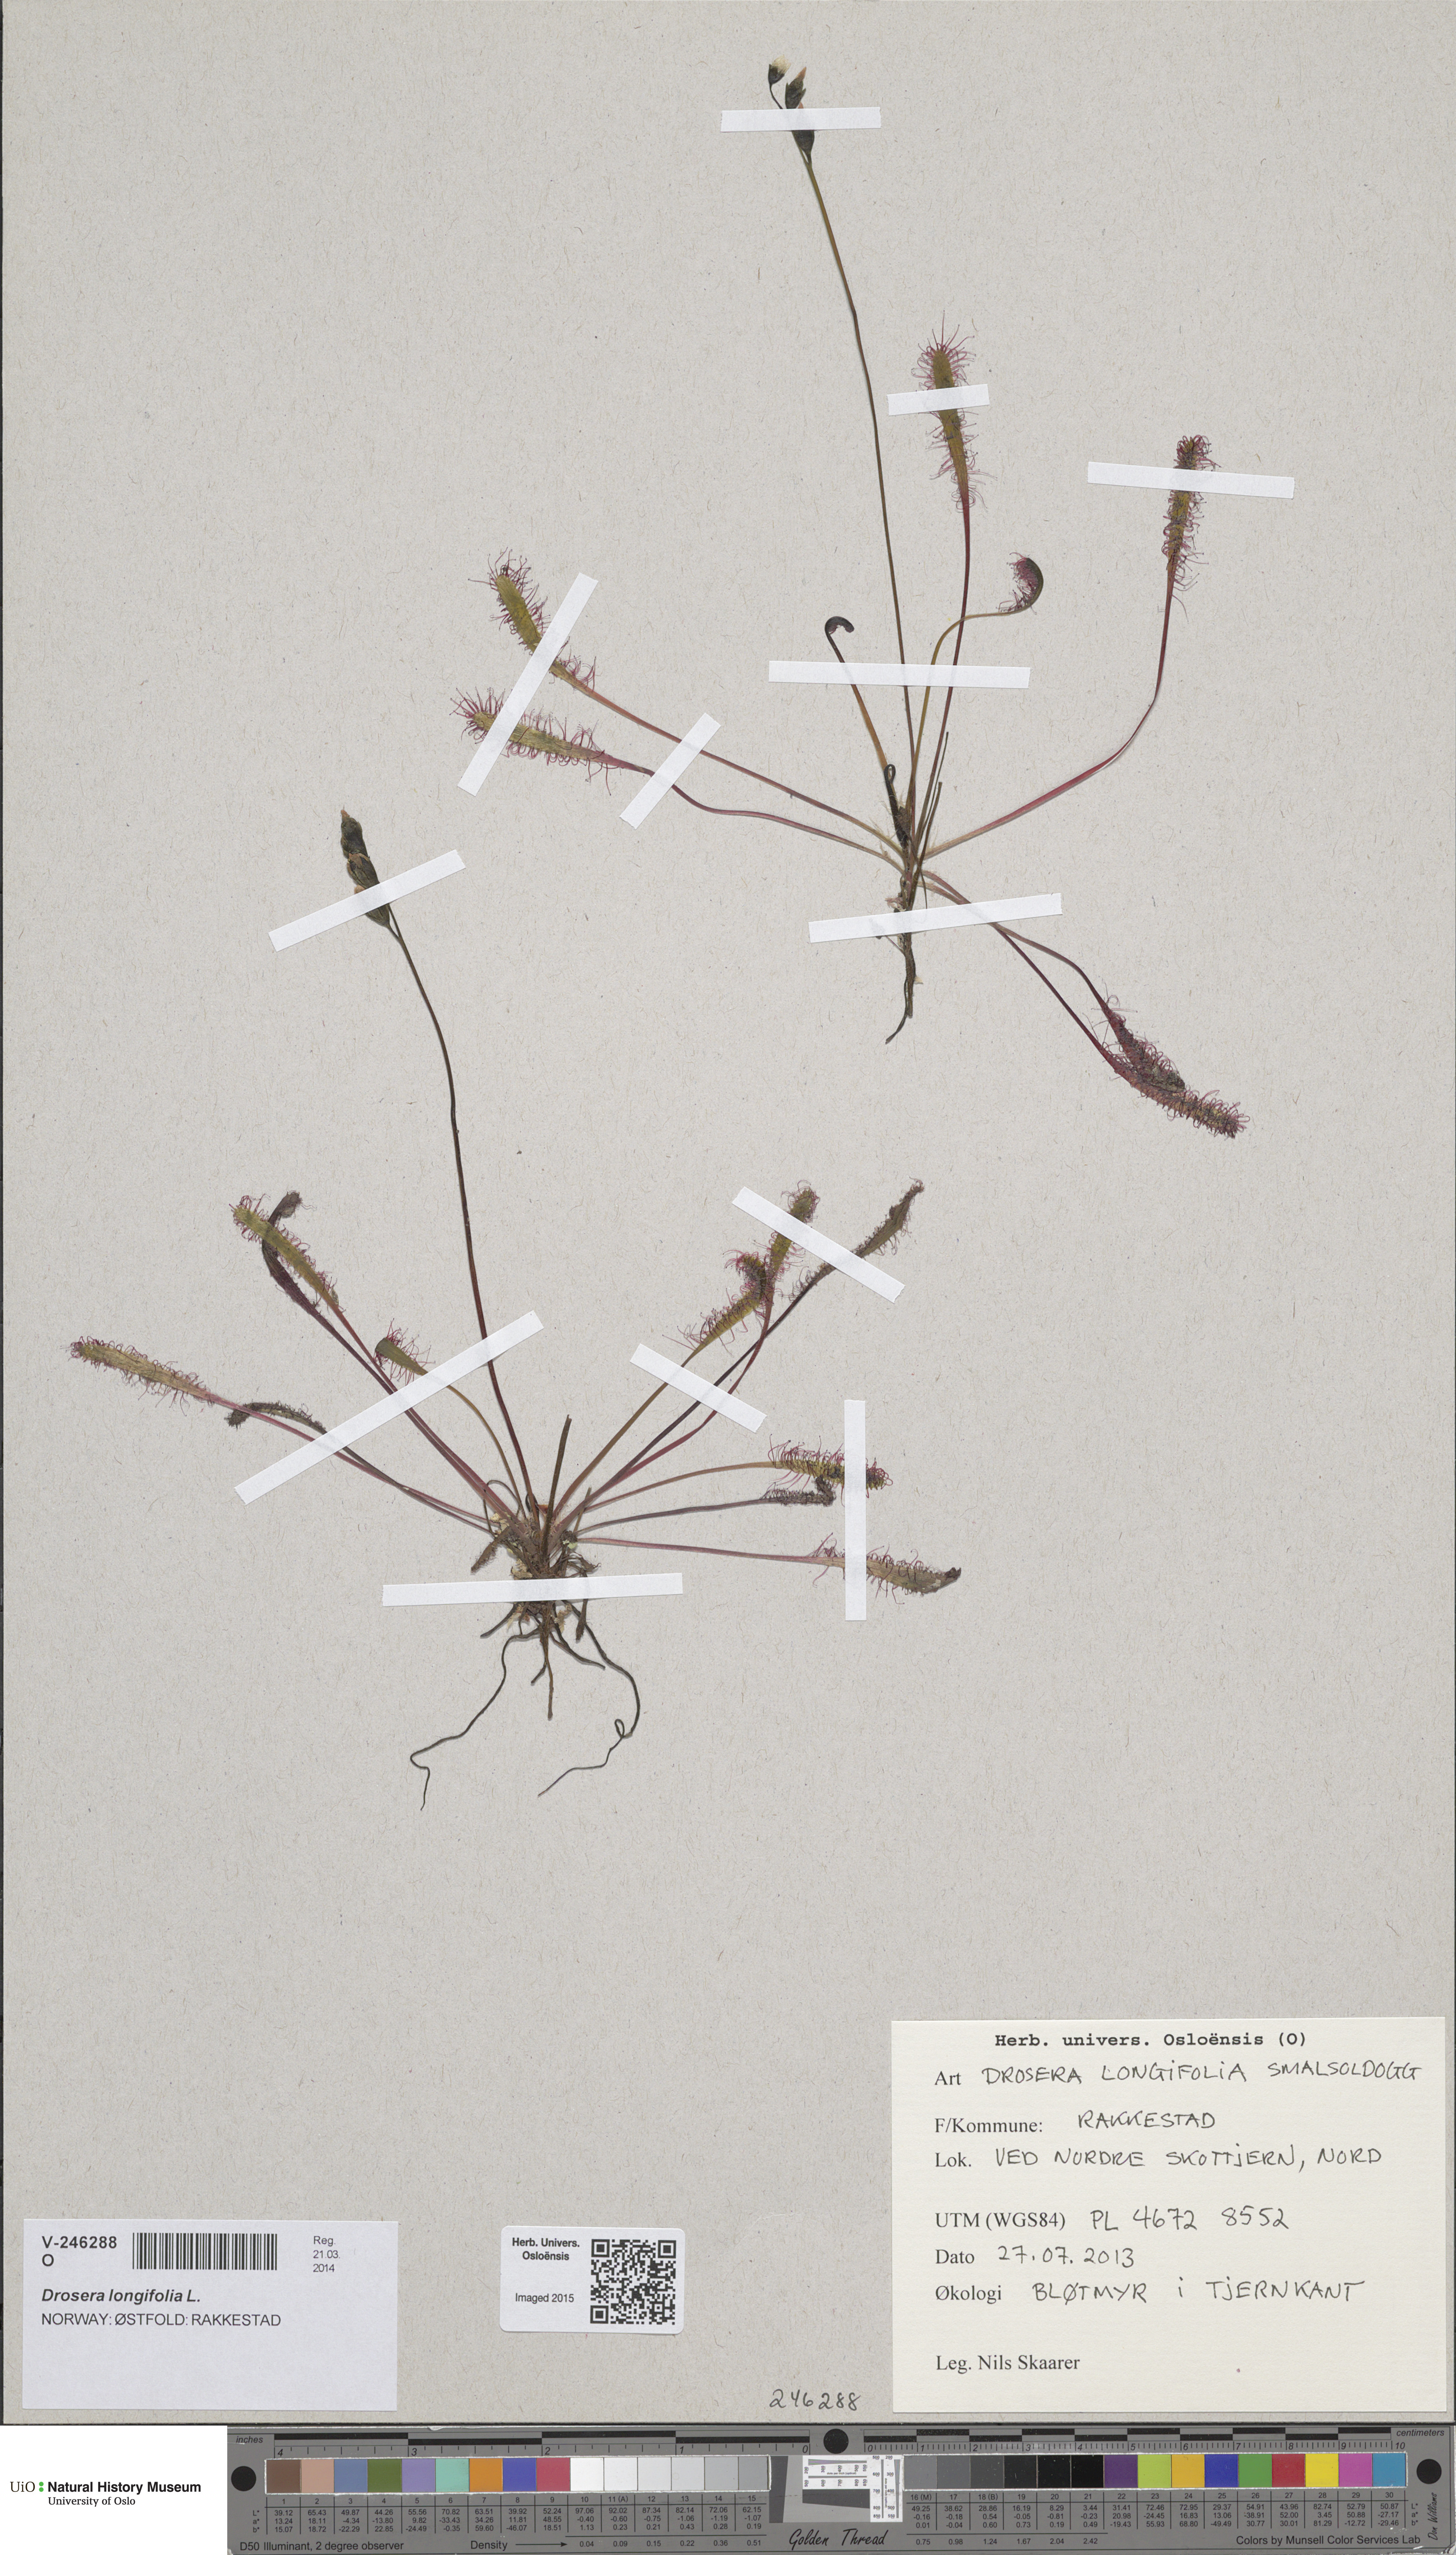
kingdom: Plantae
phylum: Tracheophyta
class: Magnoliopsida
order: Caryophyllales
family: Droseraceae
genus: Drosera
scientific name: Drosera anglica
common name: Great sundew
